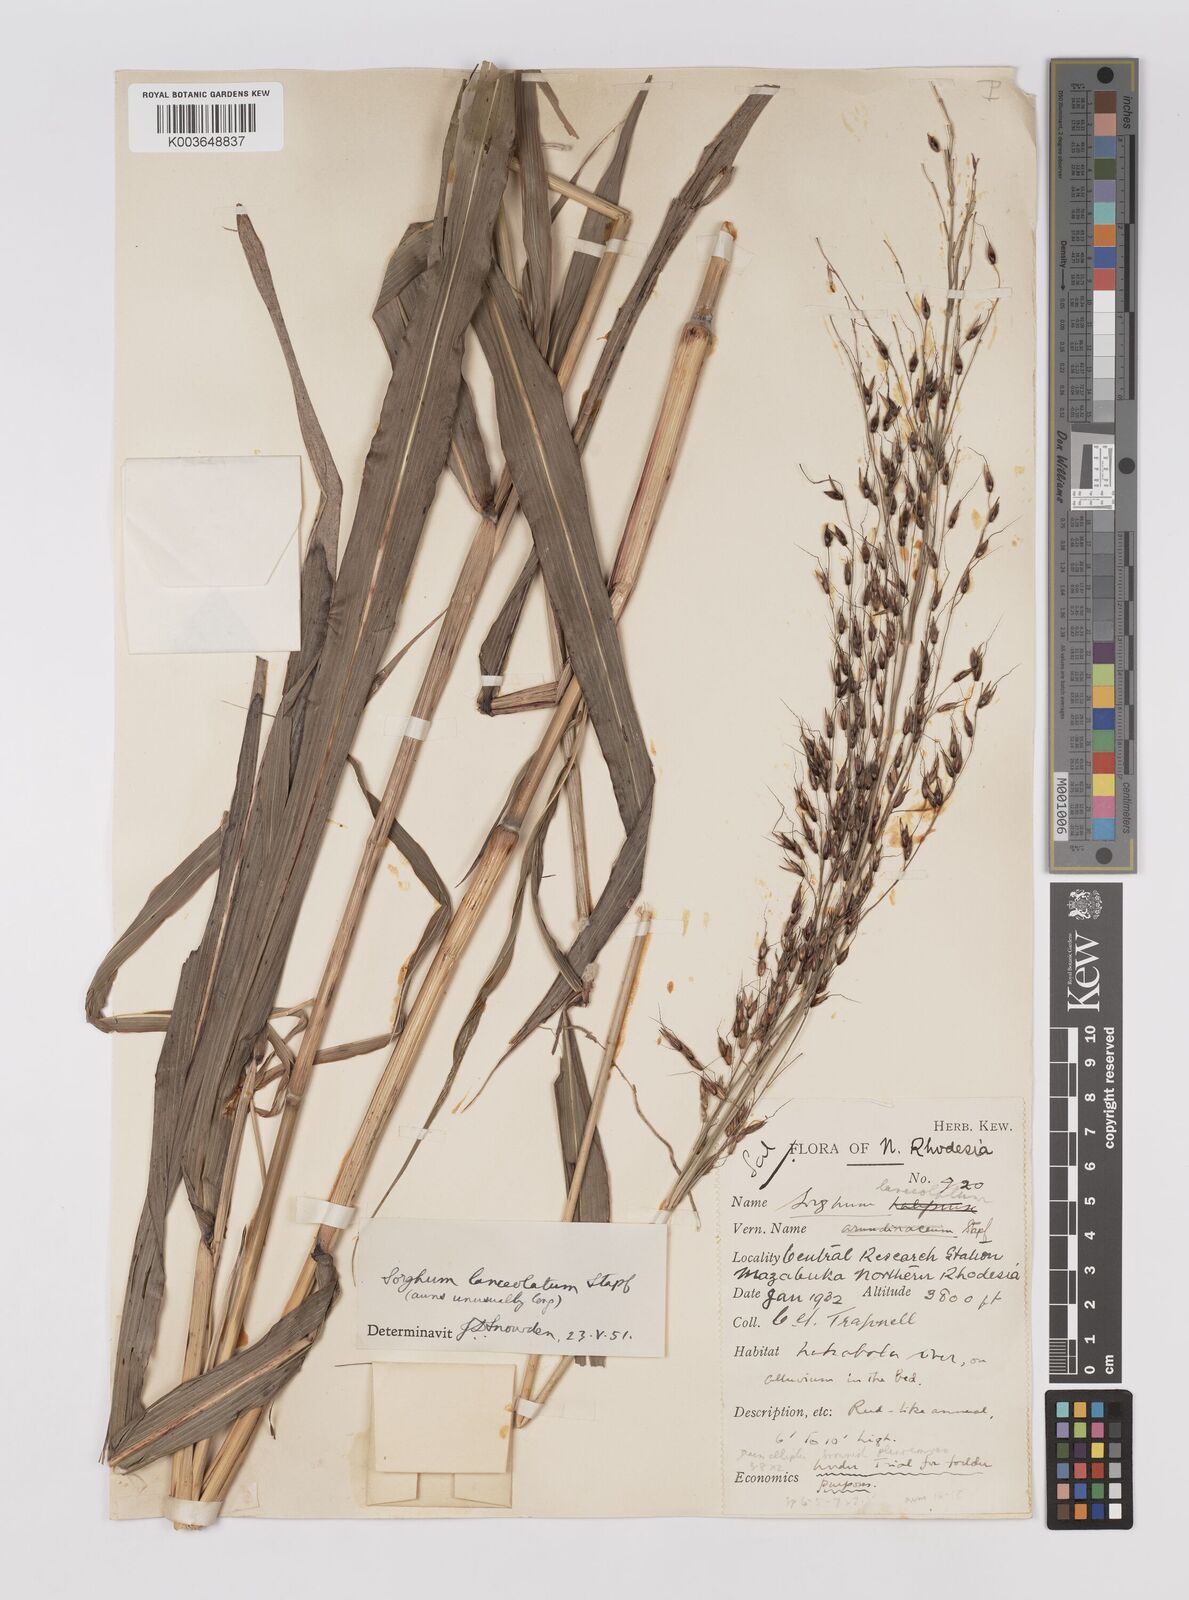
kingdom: Plantae
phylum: Tracheophyta
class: Liliopsida
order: Poales
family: Poaceae
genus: Sorghum
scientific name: Sorghum arundinaceum
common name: Sorghum
